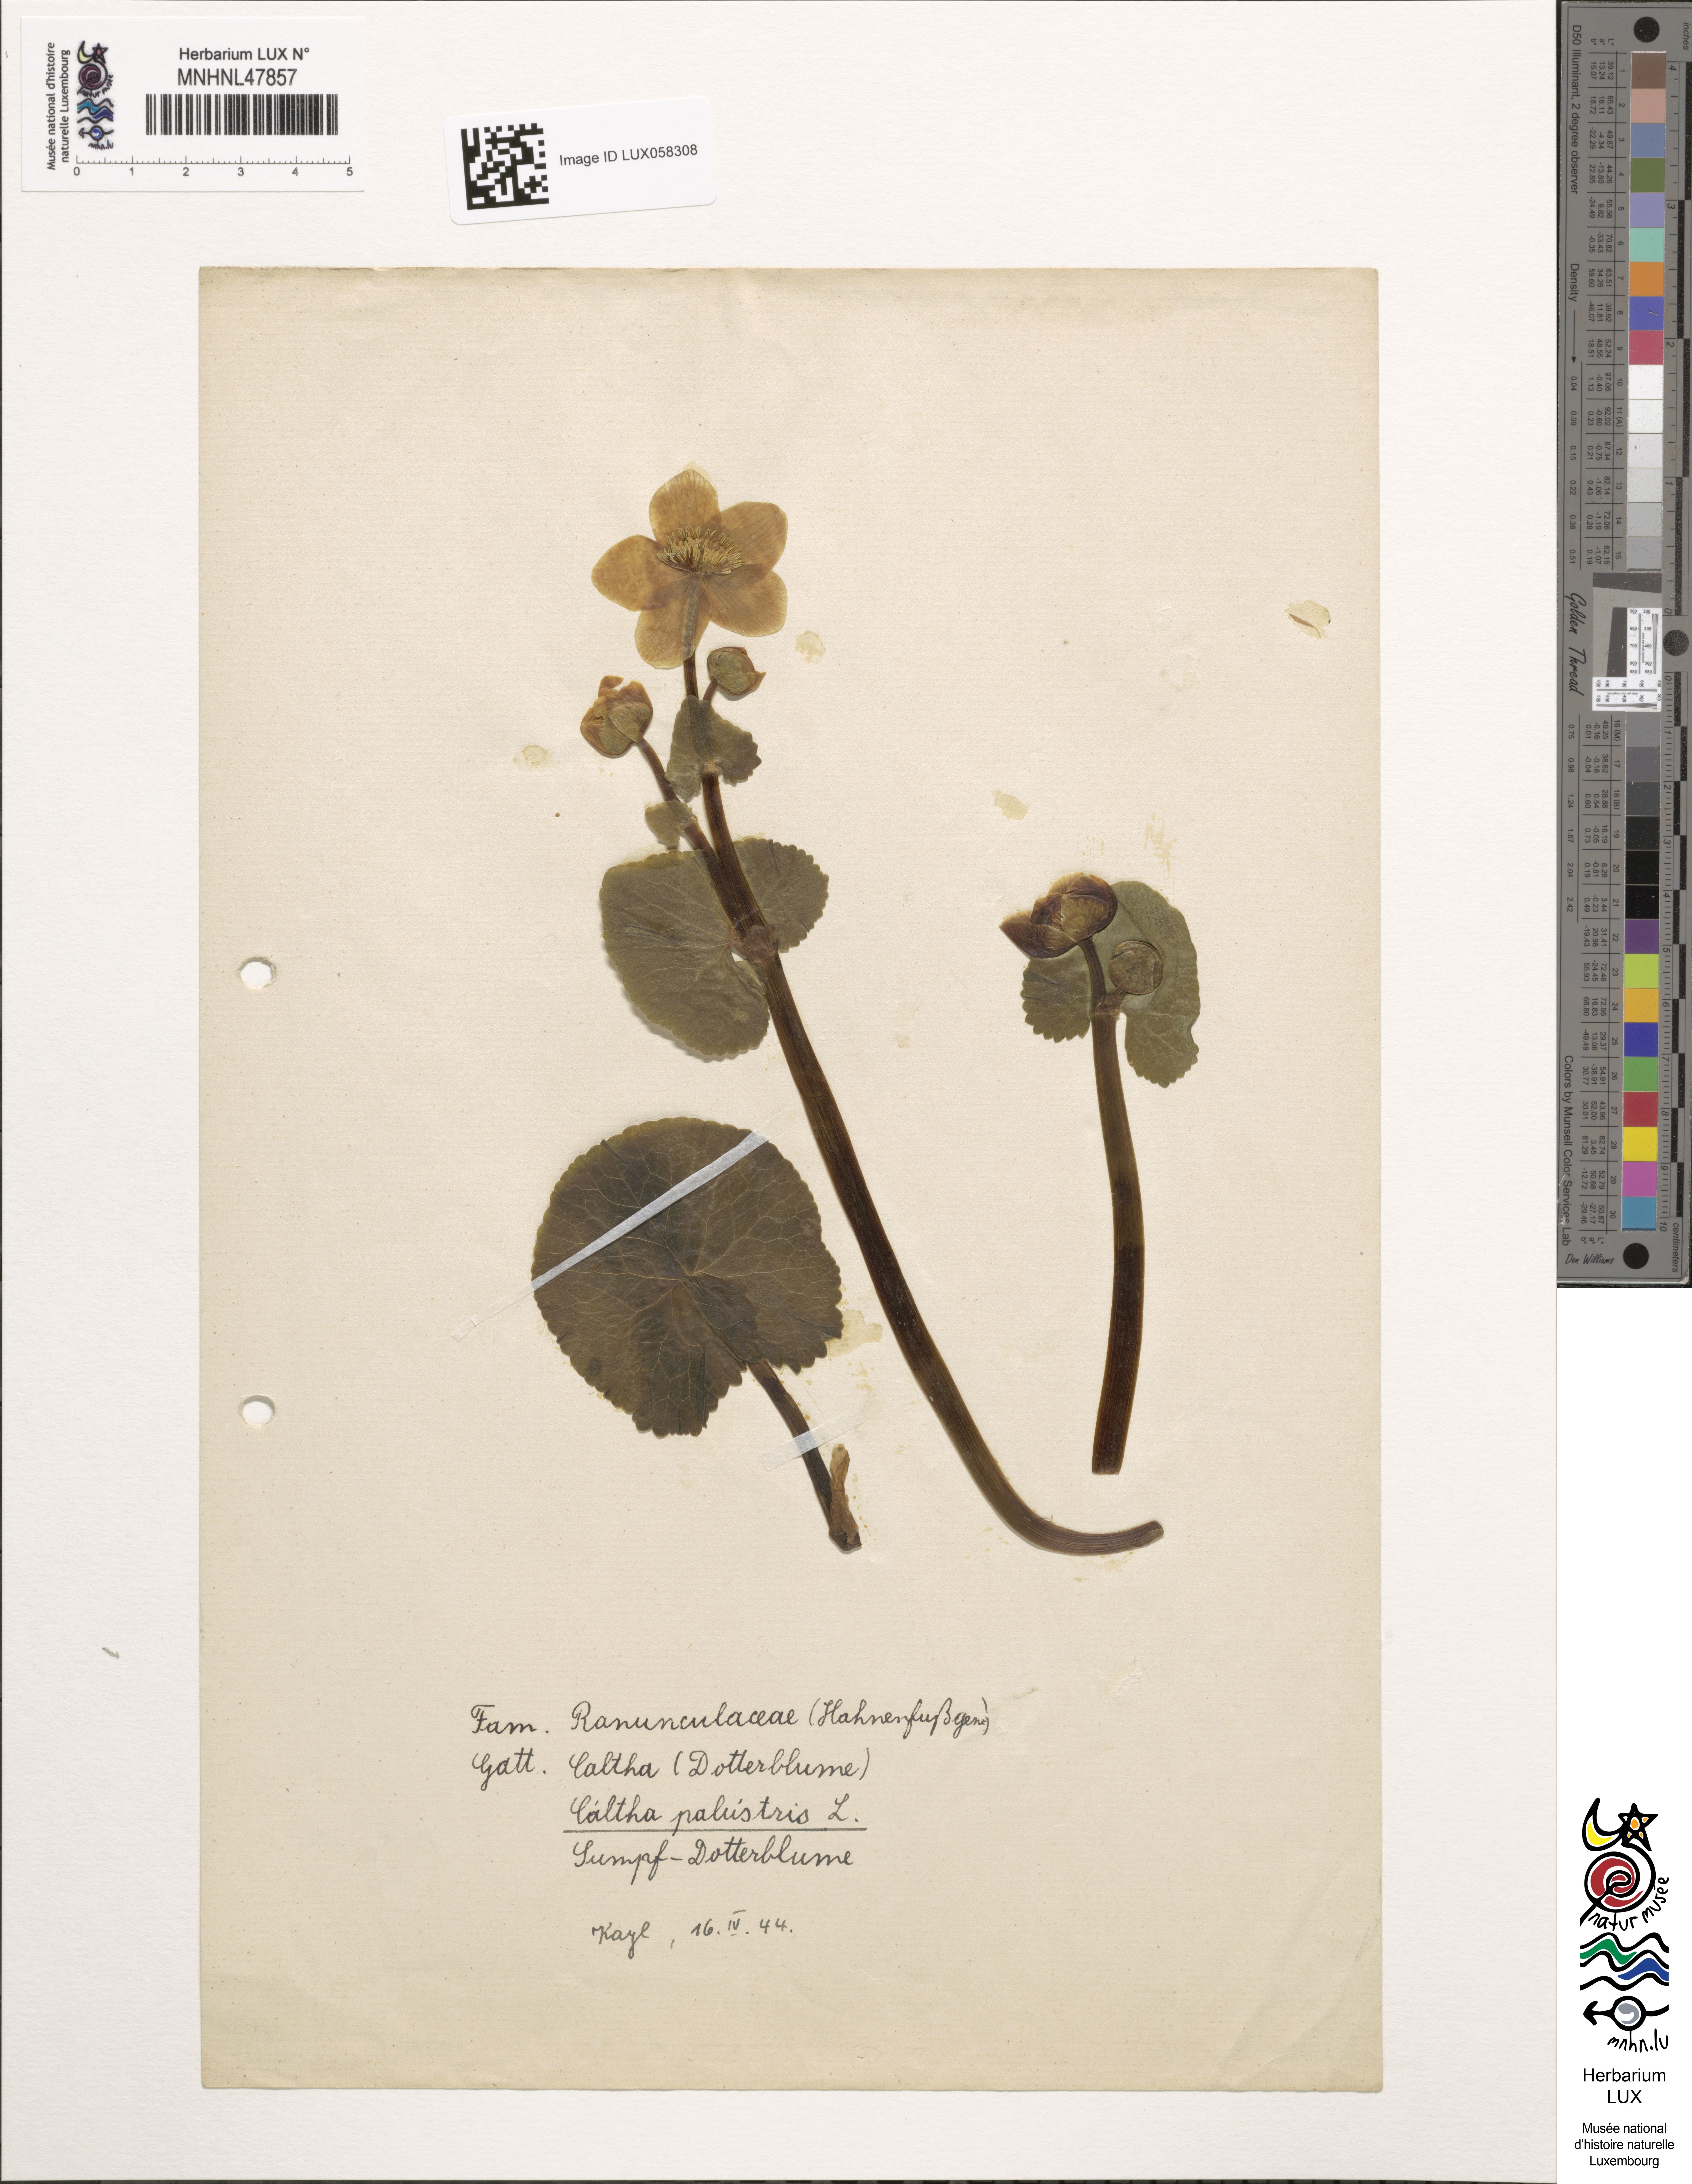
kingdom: Plantae
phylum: Tracheophyta
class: Magnoliopsida
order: Ranunculales
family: Ranunculaceae
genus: Caltha
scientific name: Caltha palustris
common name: Marsh marigold
